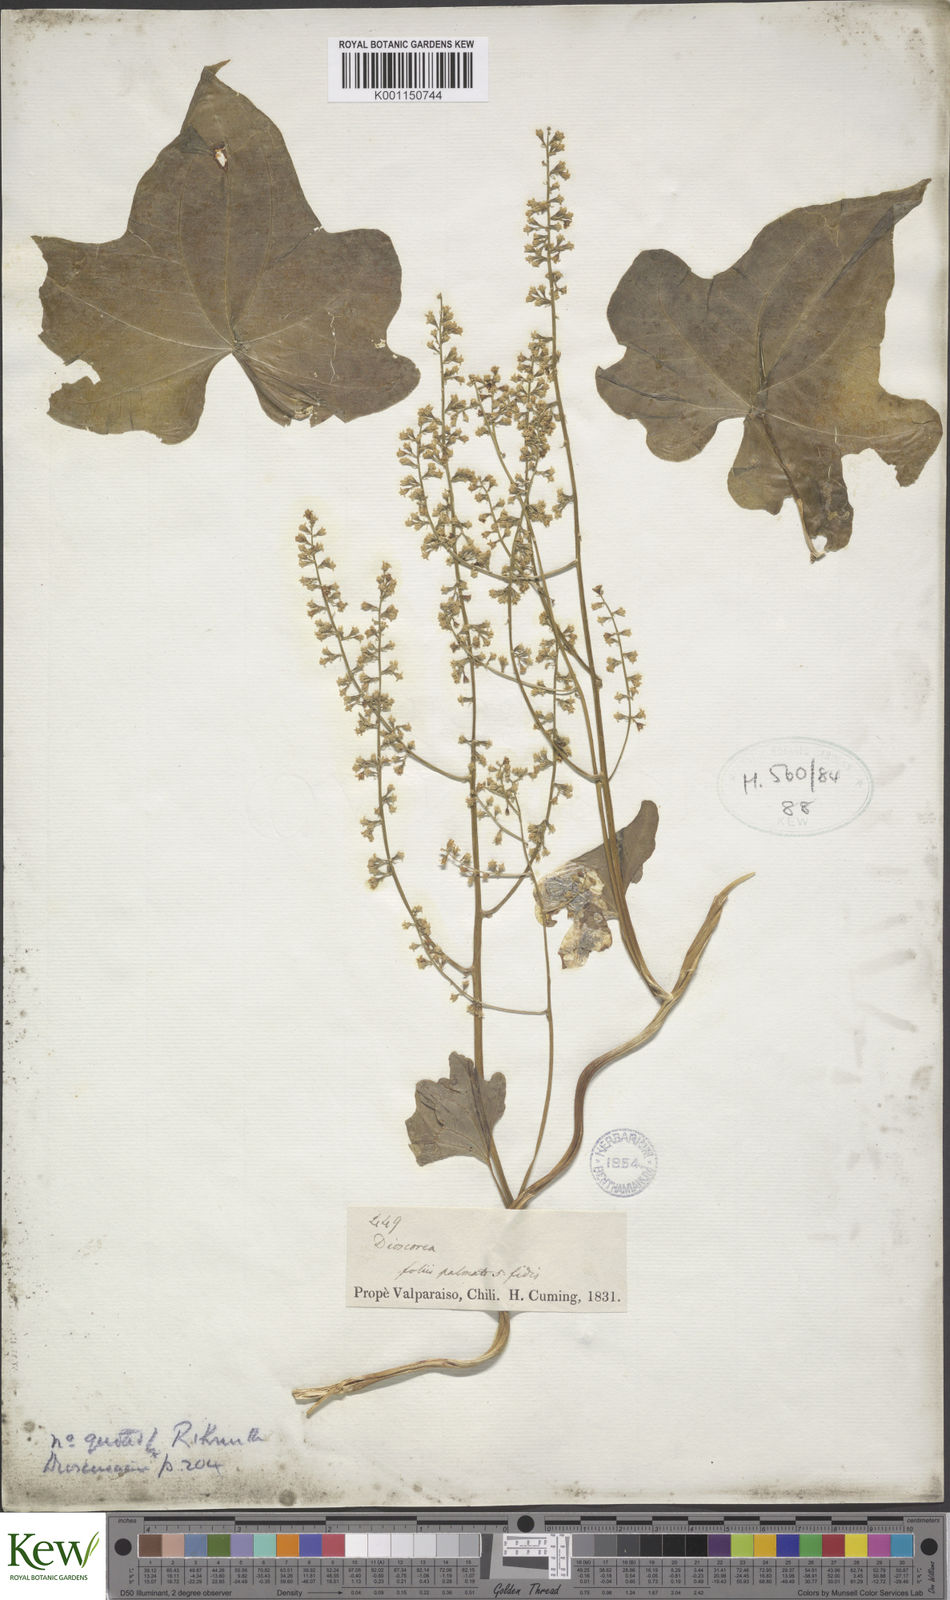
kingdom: Plantae
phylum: Tracheophyta
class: Liliopsida
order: Dioscoreales
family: Dioscoreaceae
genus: Dioscorea
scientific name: Dioscorea
